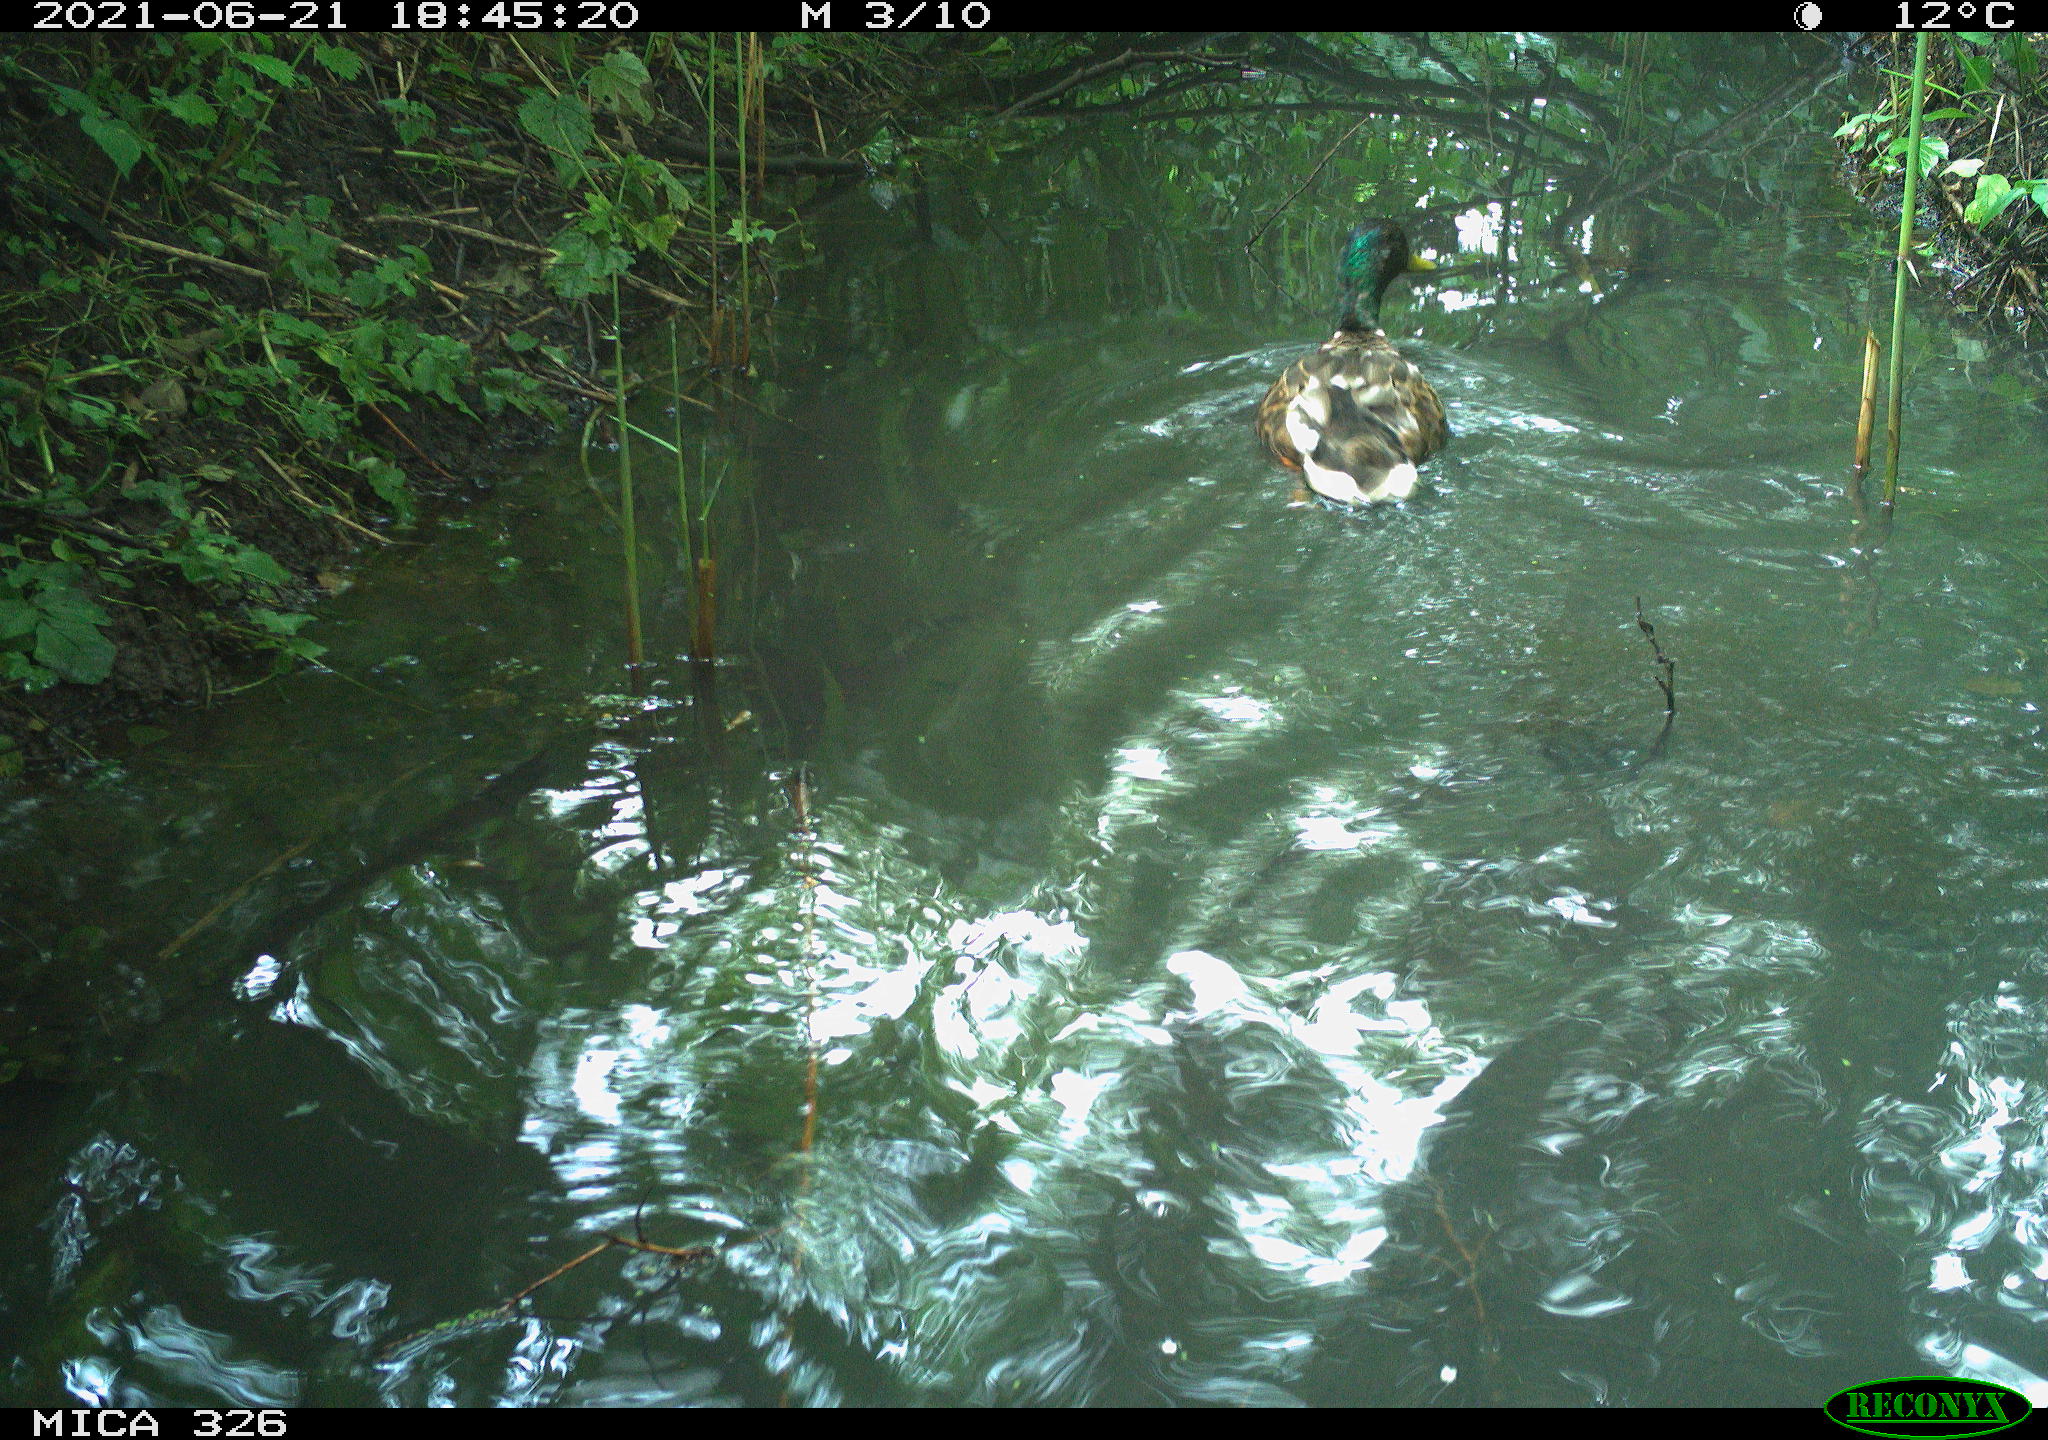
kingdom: Animalia
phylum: Chordata
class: Aves
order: Anseriformes
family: Anatidae
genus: Anas
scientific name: Anas platyrhynchos
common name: Mallard
